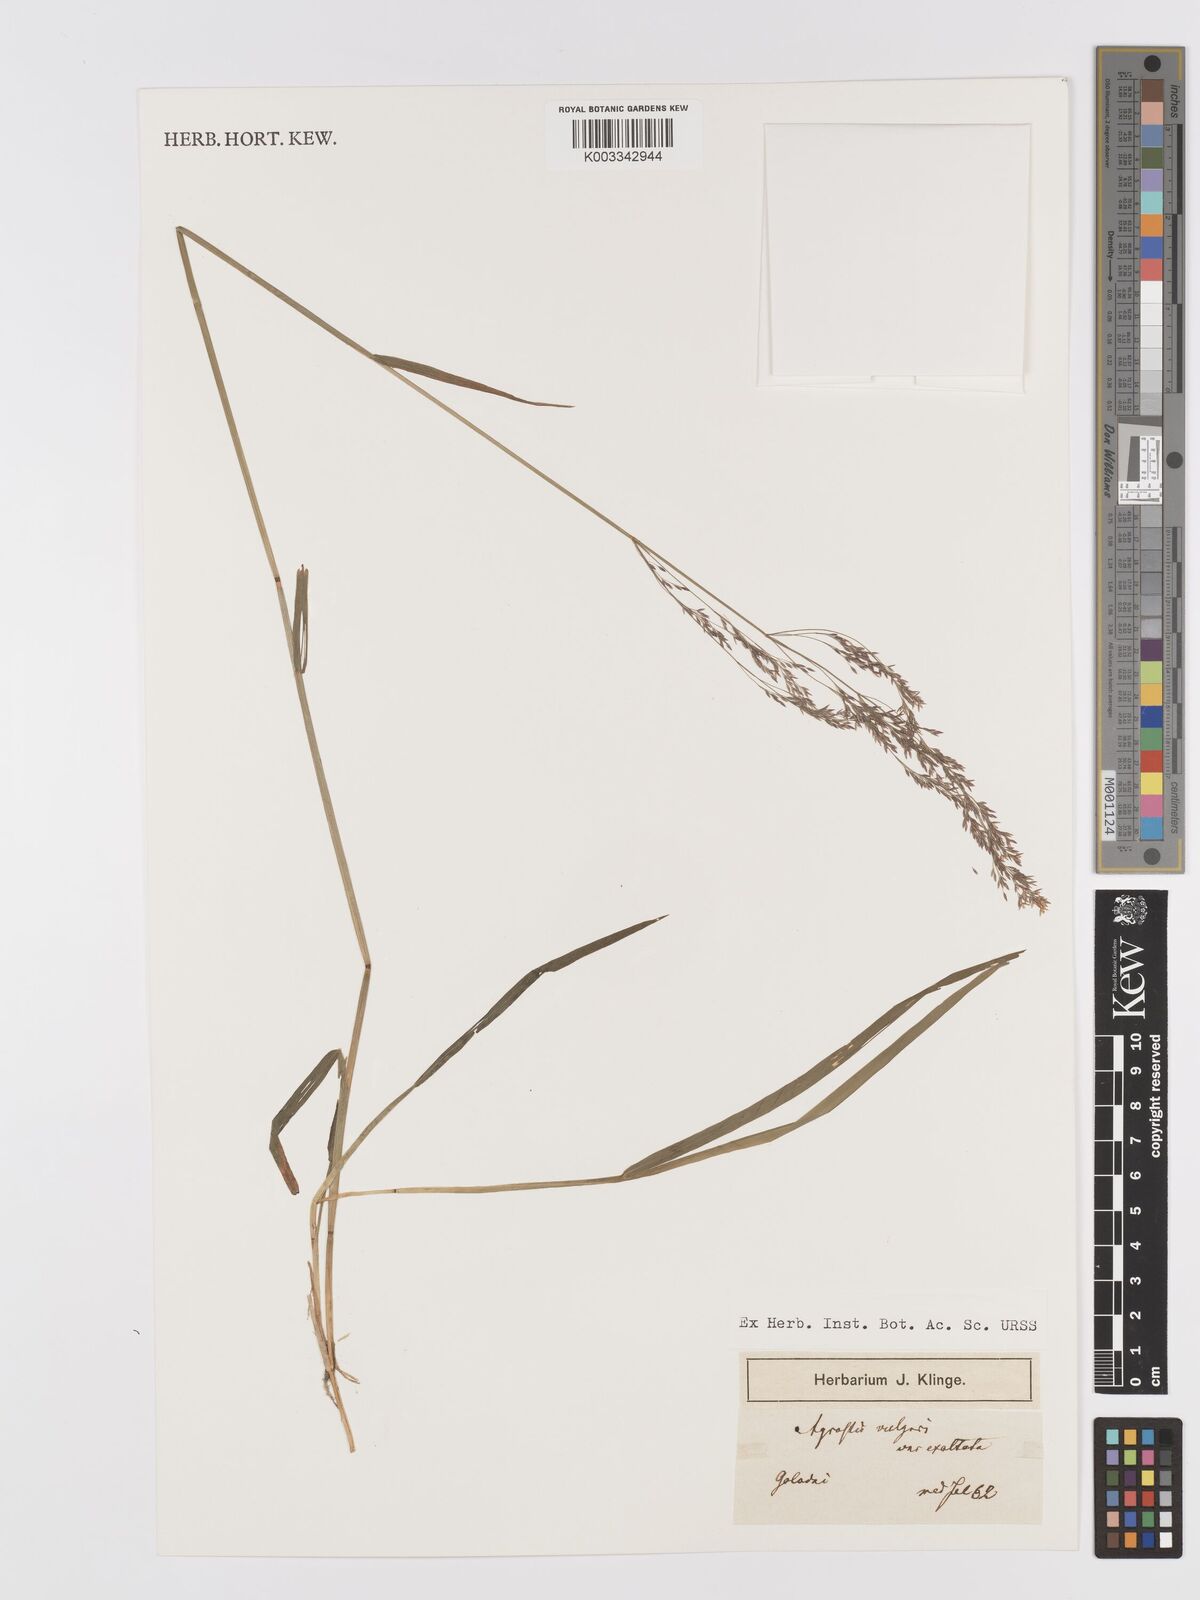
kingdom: Plantae
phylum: Tracheophyta
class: Liliopsida
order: Poales
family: Poaceae
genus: Agrostis
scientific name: Agrostis capillaris
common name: Colonial bentgrass
